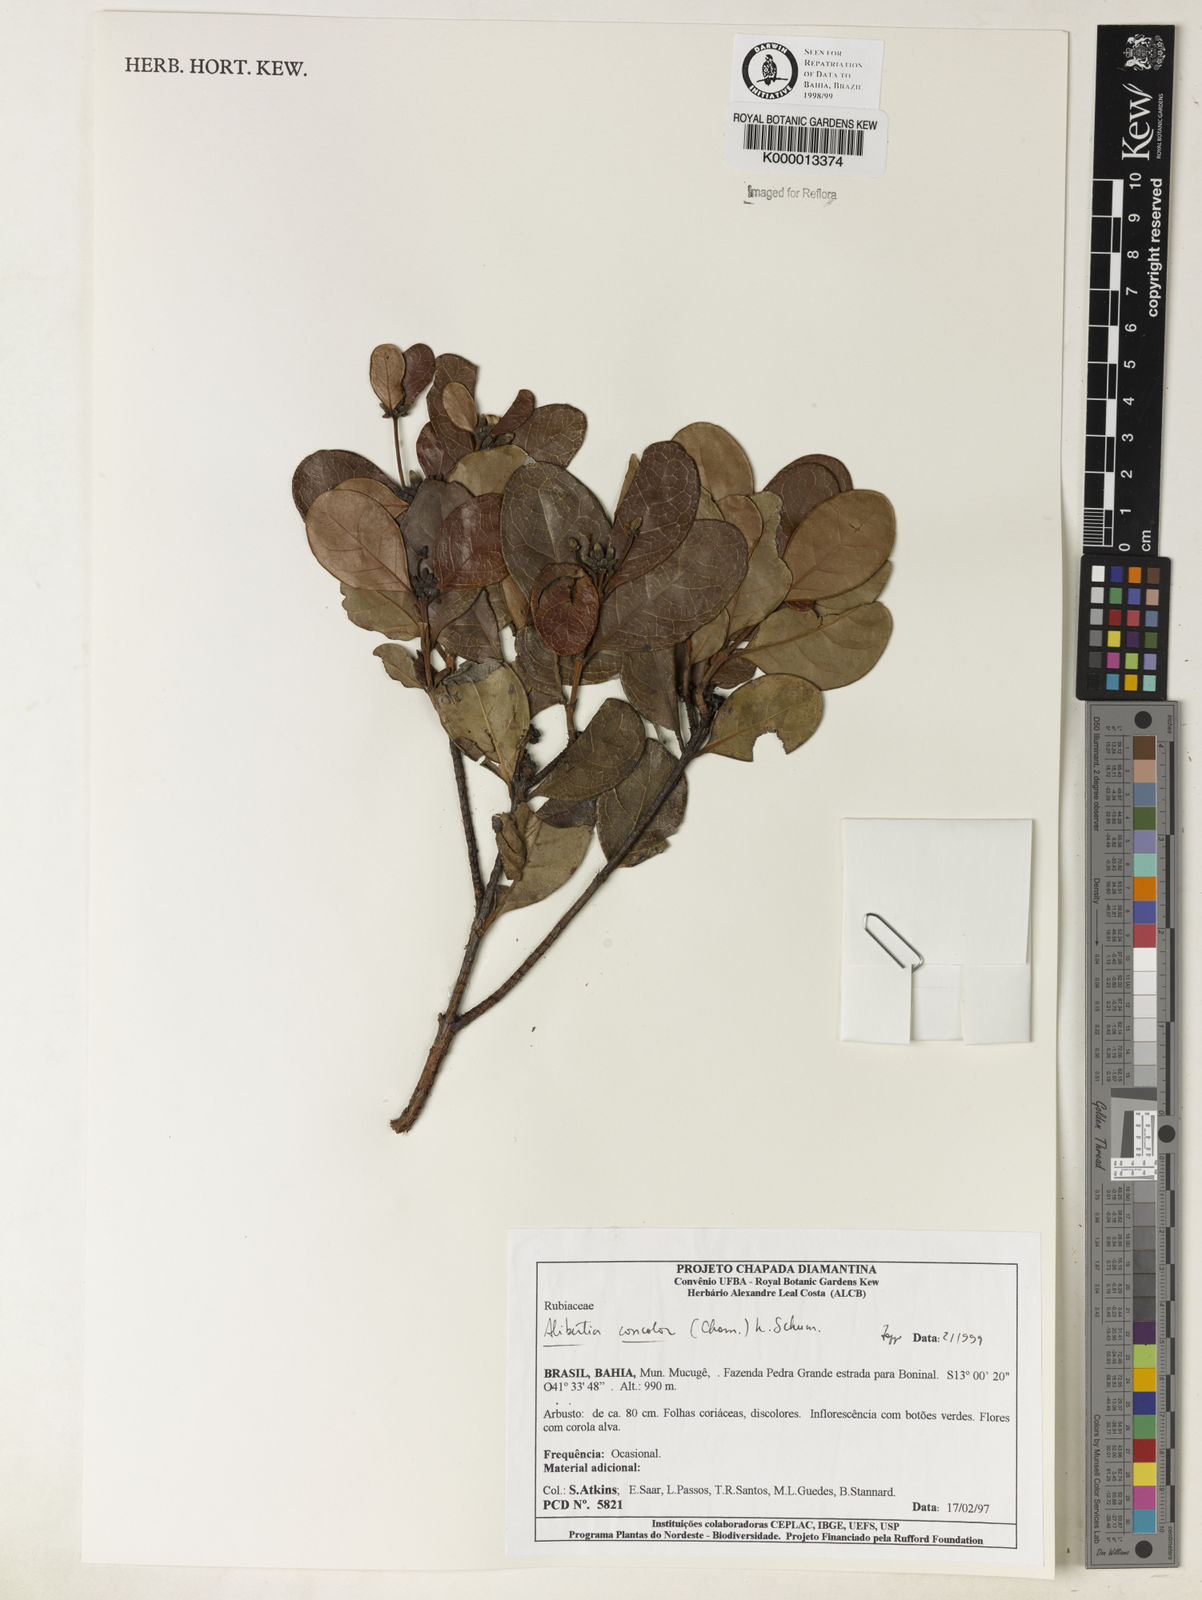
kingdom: Plantae
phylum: Tracheophyta
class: Magnoliopsida
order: Gentianales
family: Rubiaceae
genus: Cordiera
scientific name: Cordiera concolor
